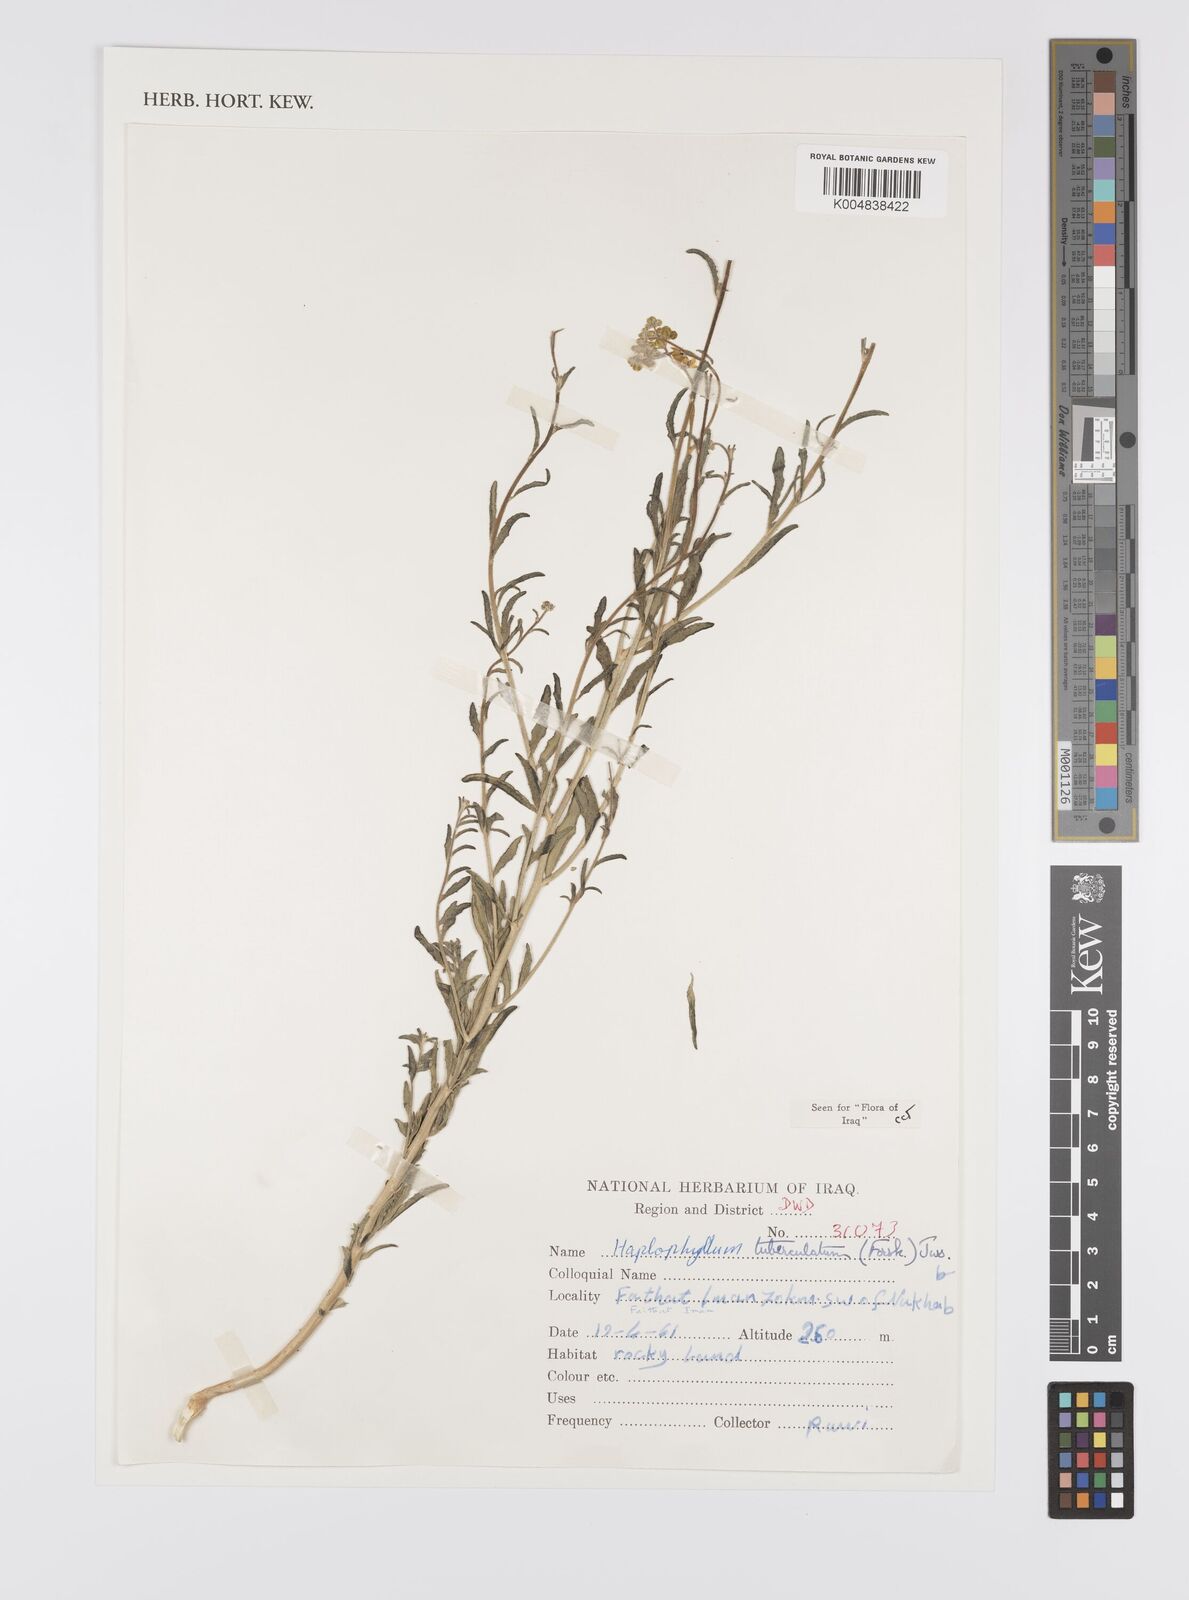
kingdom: Plantae
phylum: Tracheophyta
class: Magnoliopsida
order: Sapindales
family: Rutaceae
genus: Haplophyllum
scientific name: Haplophyllum tuberculatum
